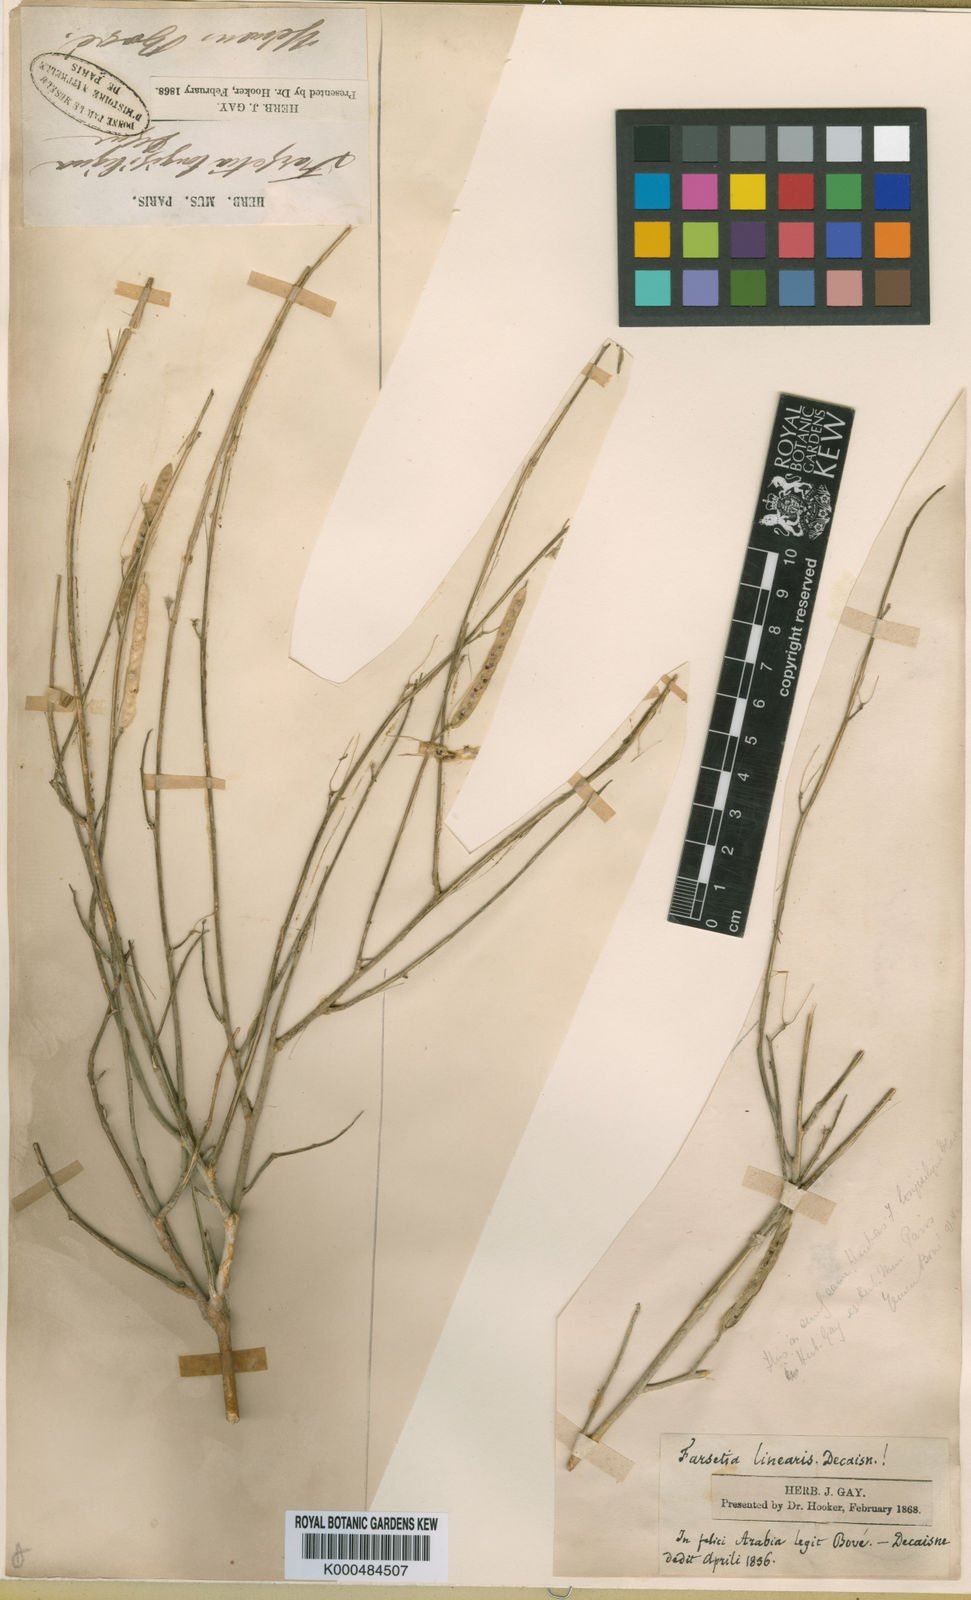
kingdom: Plantae
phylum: Tracheophyta
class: Magnoliopsida
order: Brassicales
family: Brassicaceae
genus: Farsetia
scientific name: Farsetia longisiliqua
